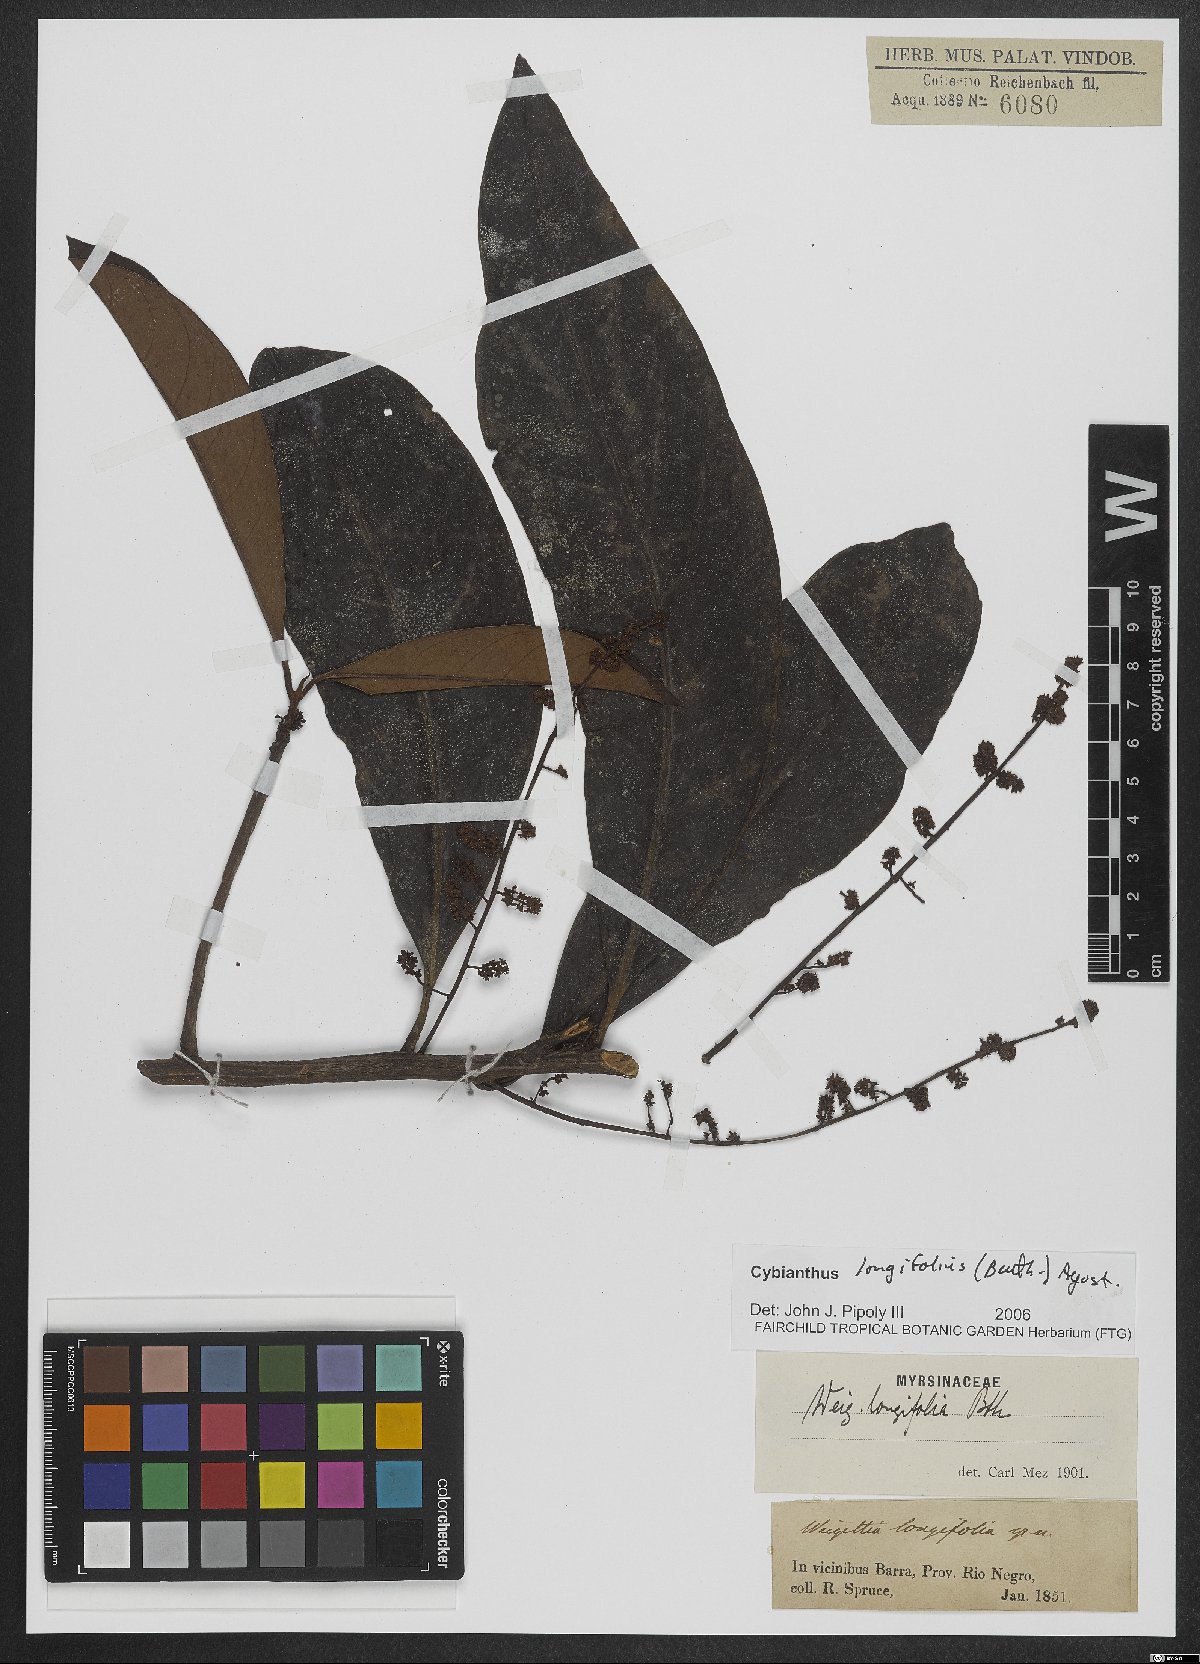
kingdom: Plantae
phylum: Tracheophyta
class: Magnoliopsida
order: Ericales
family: Primulaceae
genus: Cybianthus
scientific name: Cybianthus longifolius
